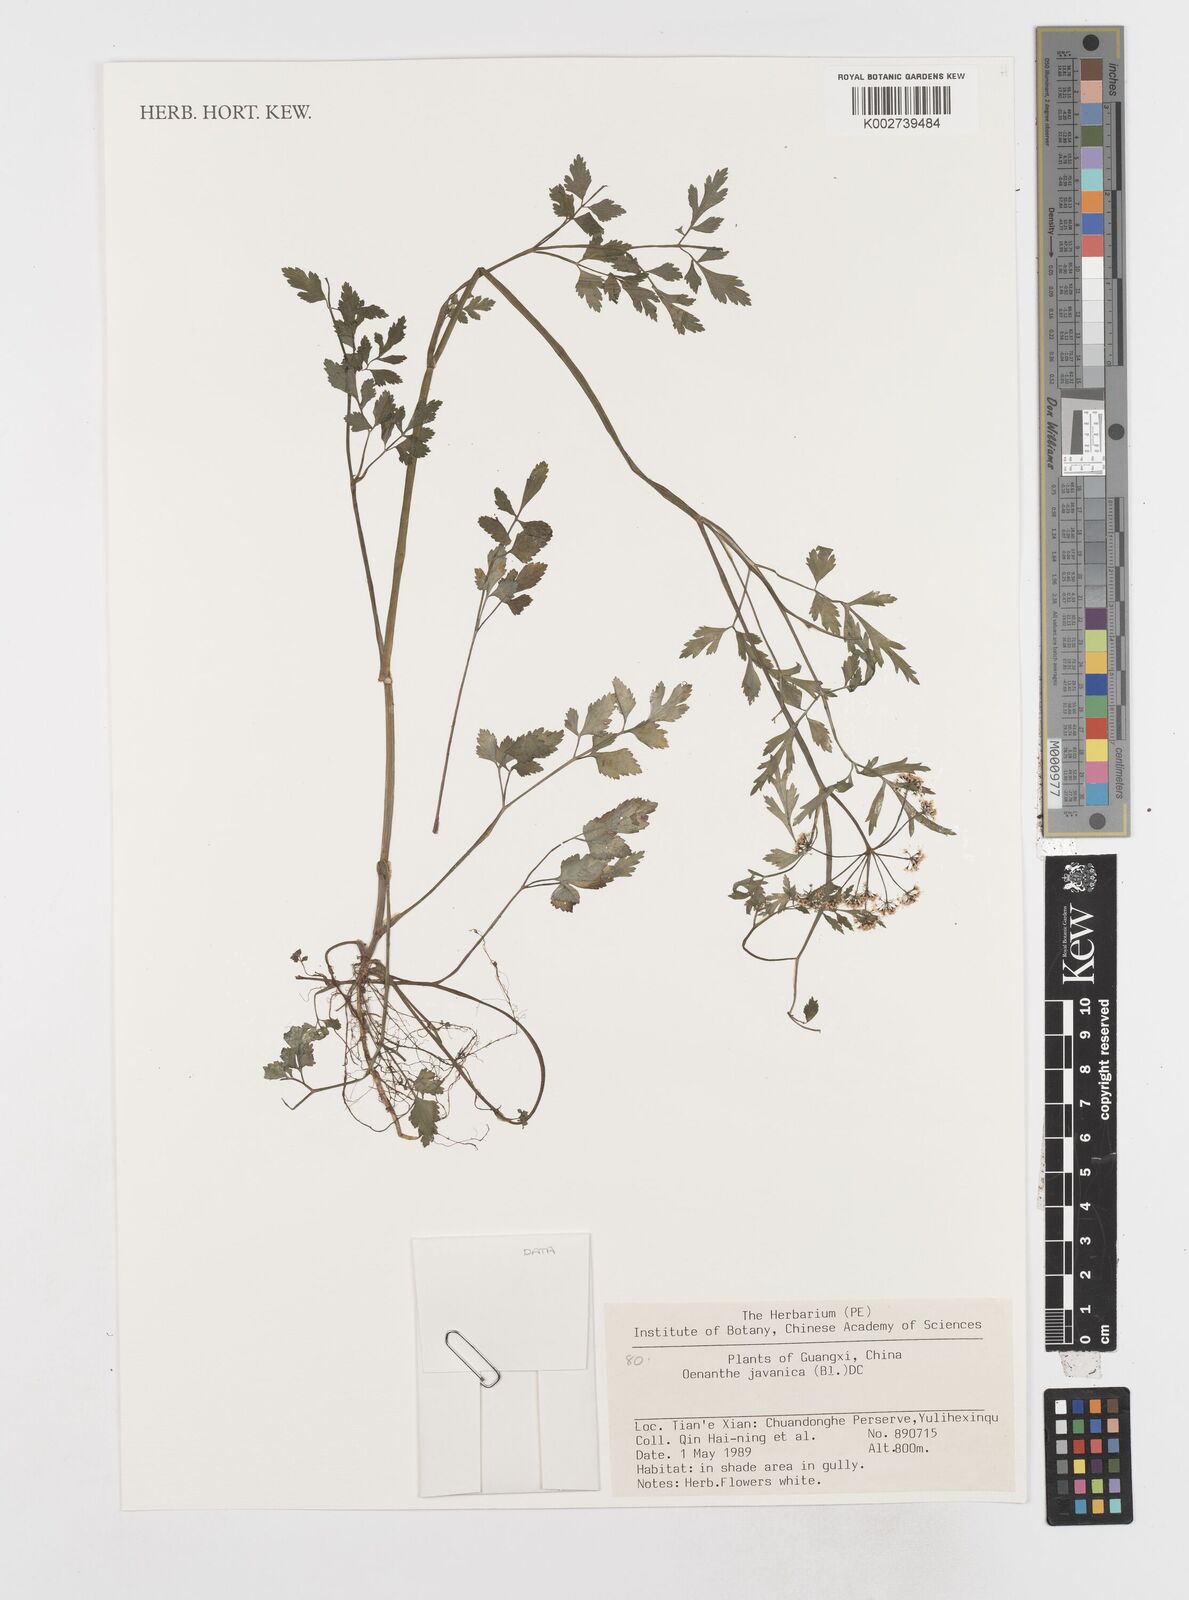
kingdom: Plantae
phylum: Tracheophyta
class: Magnoliopsida
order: Apiales
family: Apiaceae
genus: Oenanthe
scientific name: Oenanthe javanica
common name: Java water-dropwort
